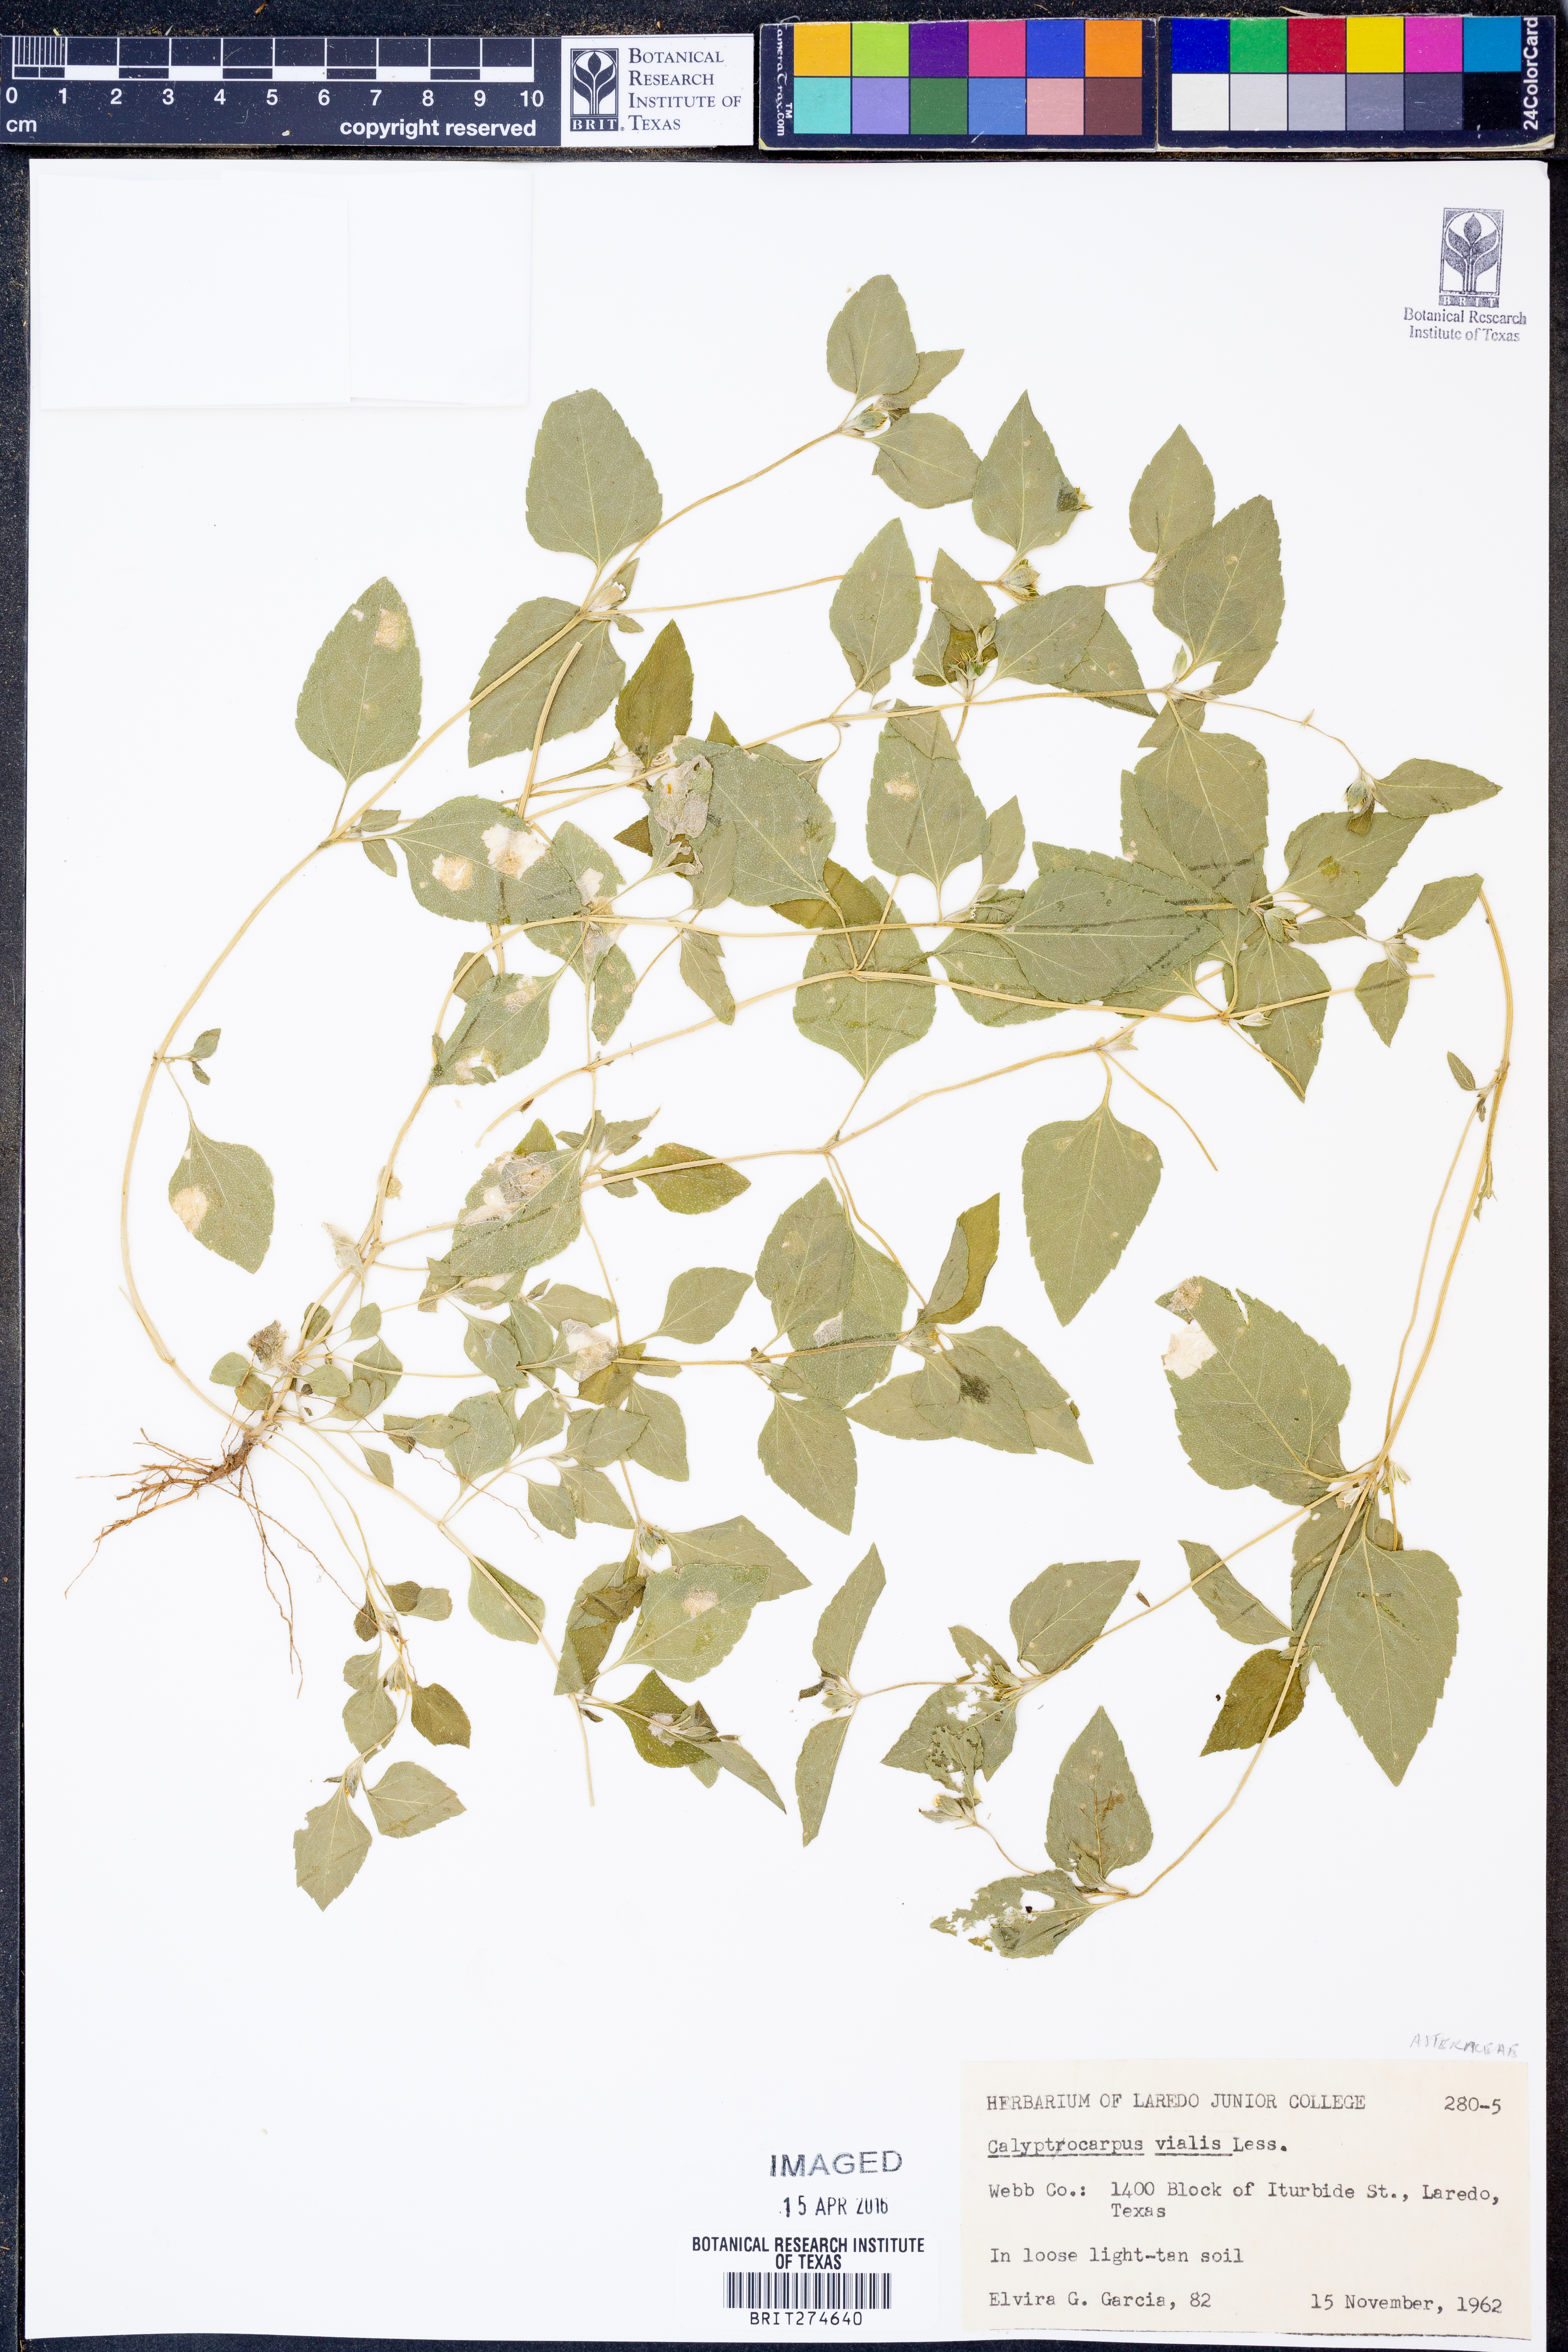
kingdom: Plantae
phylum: Tracheophyta
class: Magnoliopsida
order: Asterales
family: Asteraceae
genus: Calyptocarpus
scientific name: Calyptocarpus vialis
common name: Straggler daisy
